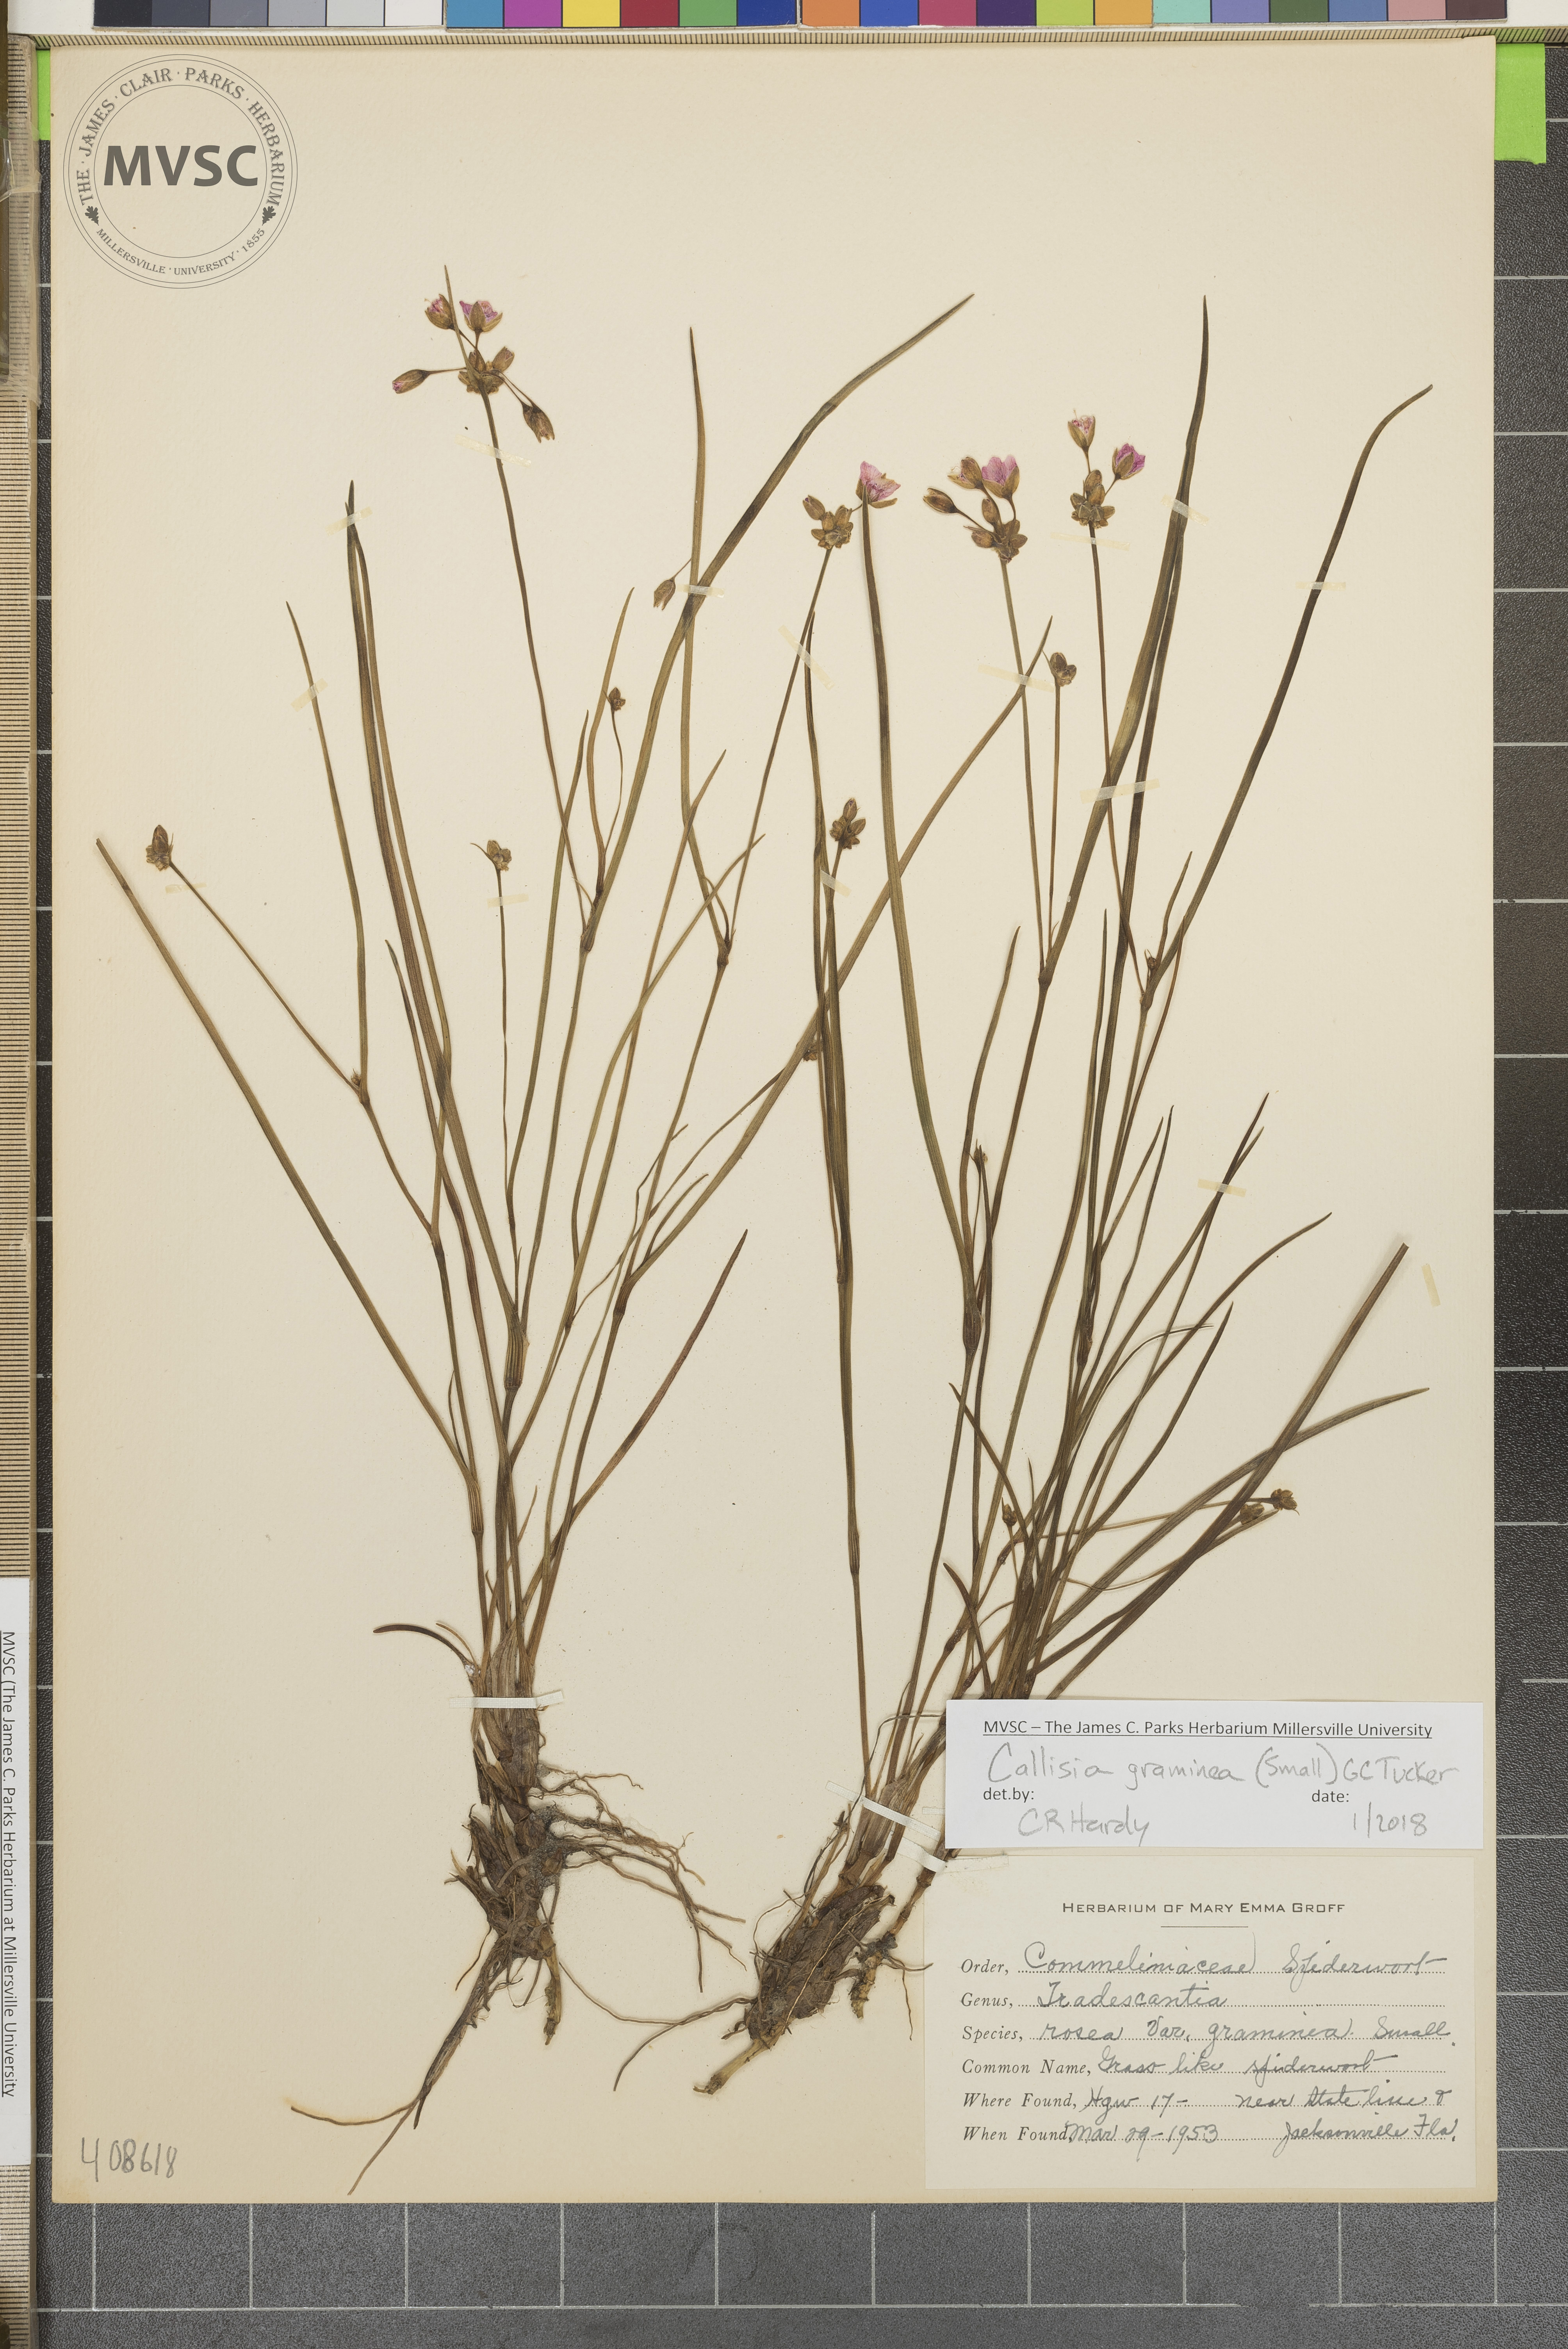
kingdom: Plantae
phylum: Tracheophyta
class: Liliopsida
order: Commelinales
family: Commelinaceae
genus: Callisia
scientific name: Callisia graminea
